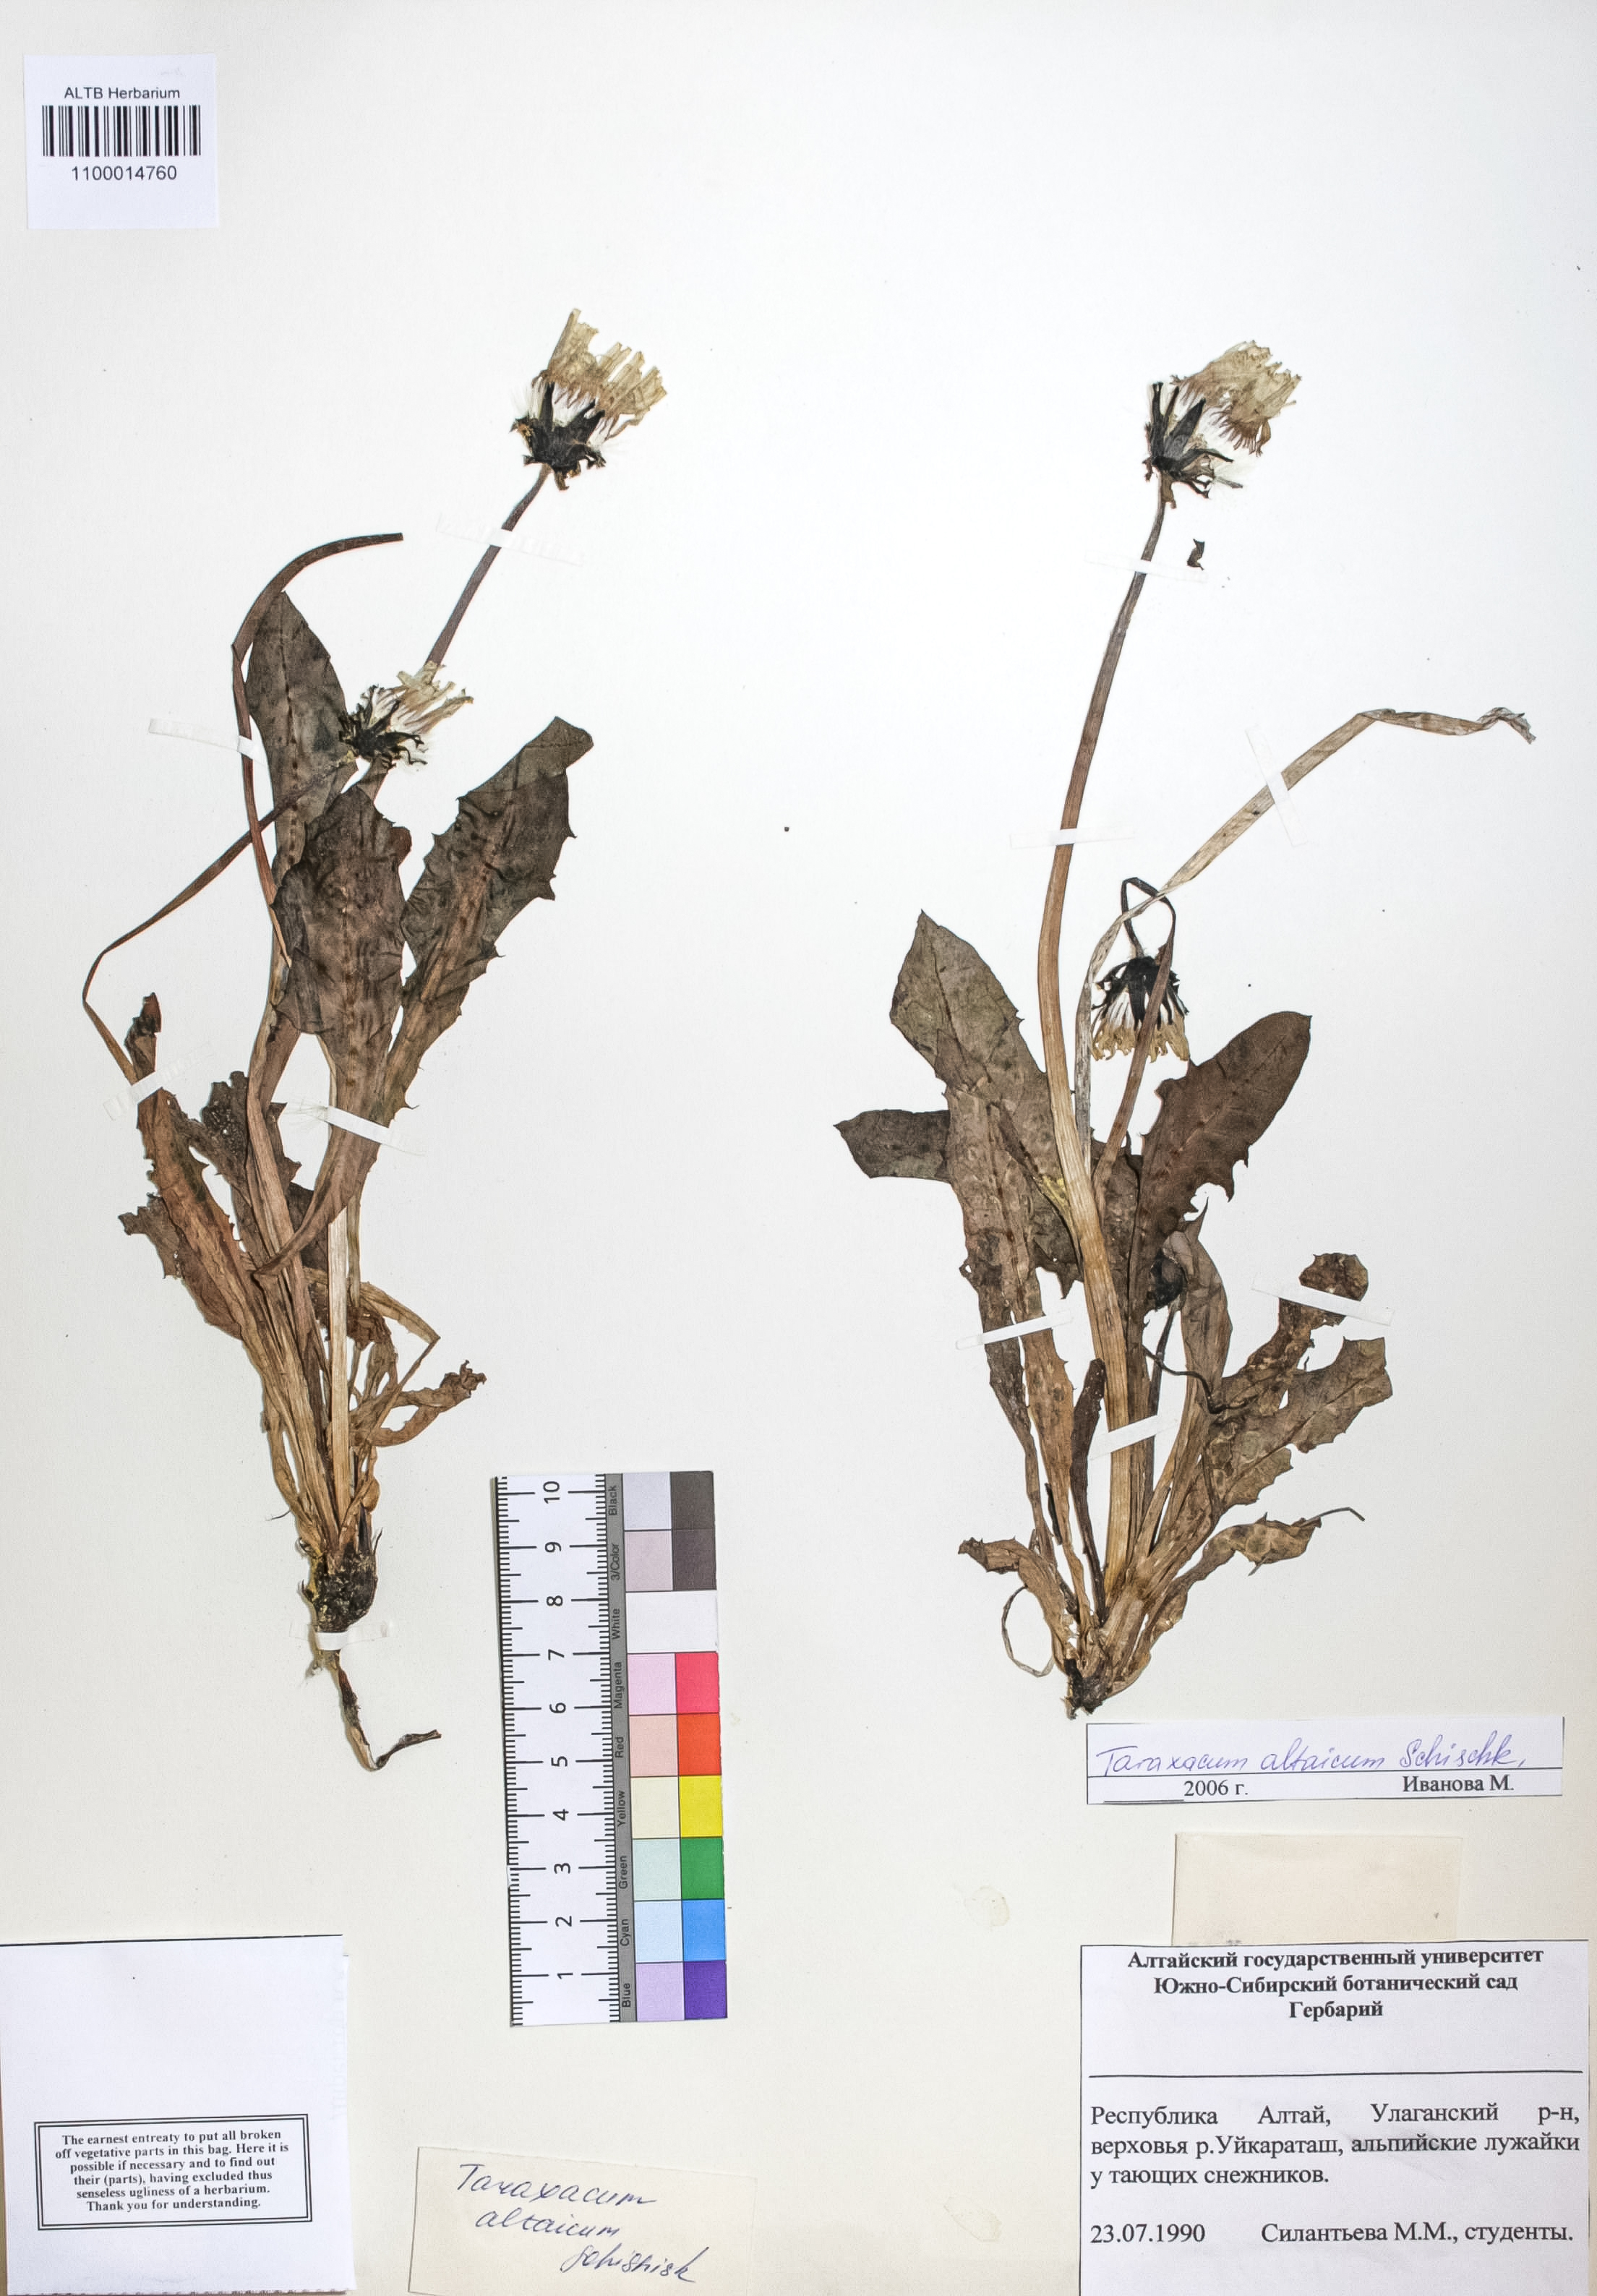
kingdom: Plantae
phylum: Tracheophyta
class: Magnoliopsida
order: Asterales
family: Asteraceae
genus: Taraxacum
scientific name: Taraxacum ceratophorum
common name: Horn-bearing dandelion
